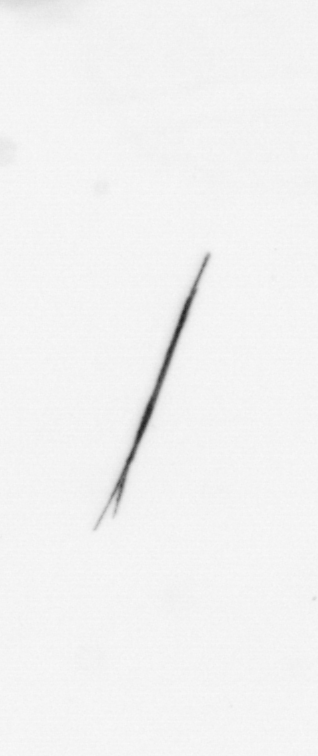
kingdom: Bacteria
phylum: Cyanobacteria
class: Cyanobacteriia
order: Cyanobacteriales
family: Microcoleaceae
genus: Trichodesmium
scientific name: Trichodesmium
